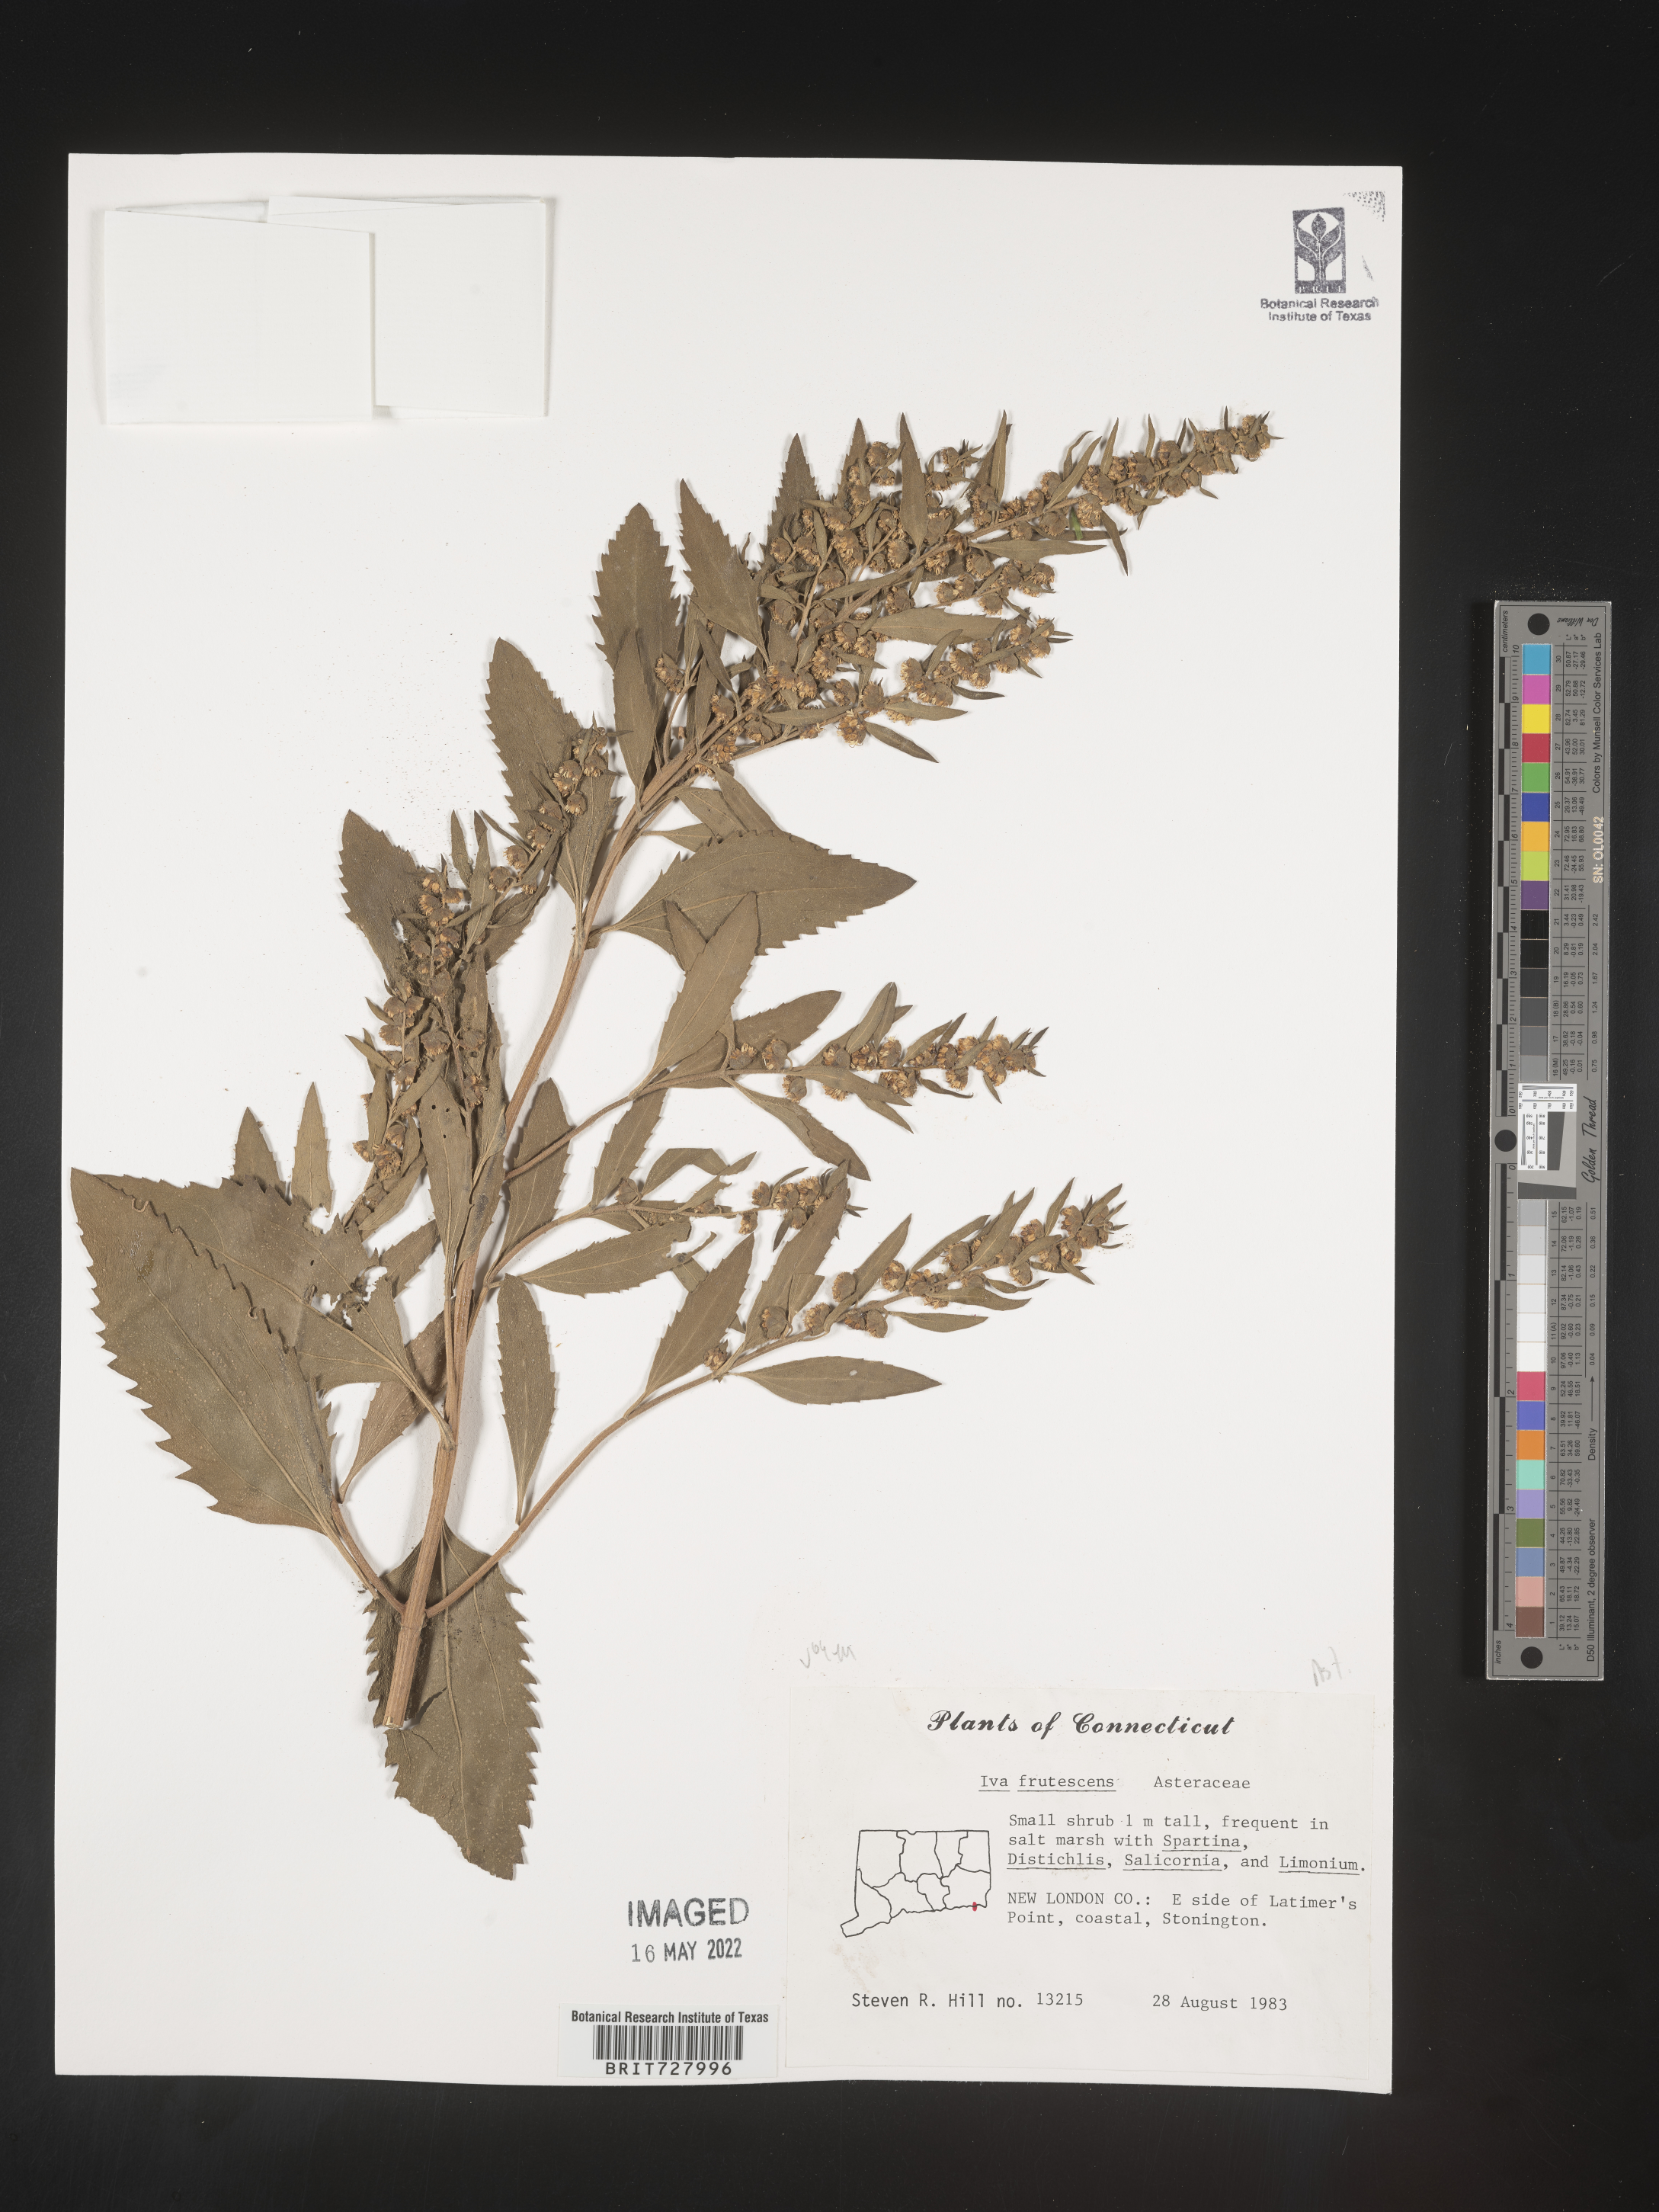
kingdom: Plantae
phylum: Tracheophyta
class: Magnoliopsida
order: Asterales
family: Asteraceae
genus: Iva
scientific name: Iva frutescens
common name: Big-leaved marsh-elder
